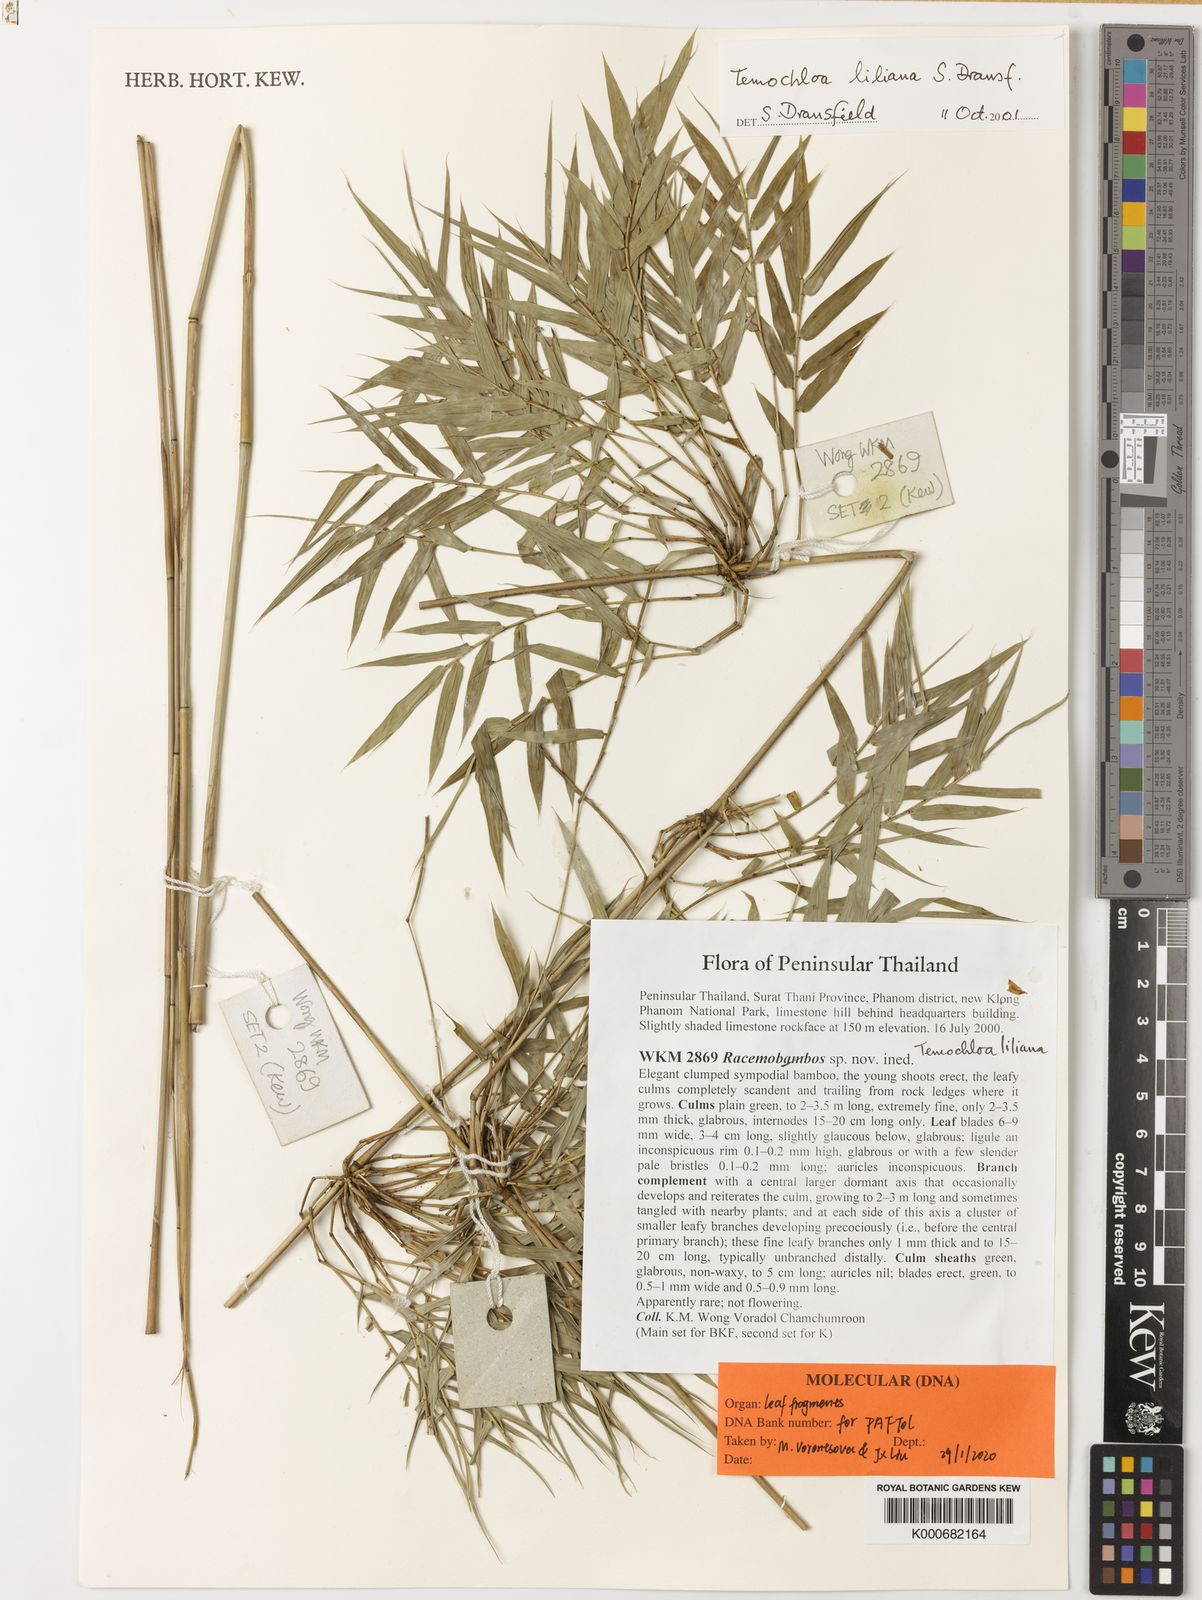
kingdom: Plantae
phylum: Tracheophyta
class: Liliopsida
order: Poales
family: Poaceae
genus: Temochloa
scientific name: Temochloa liliana
